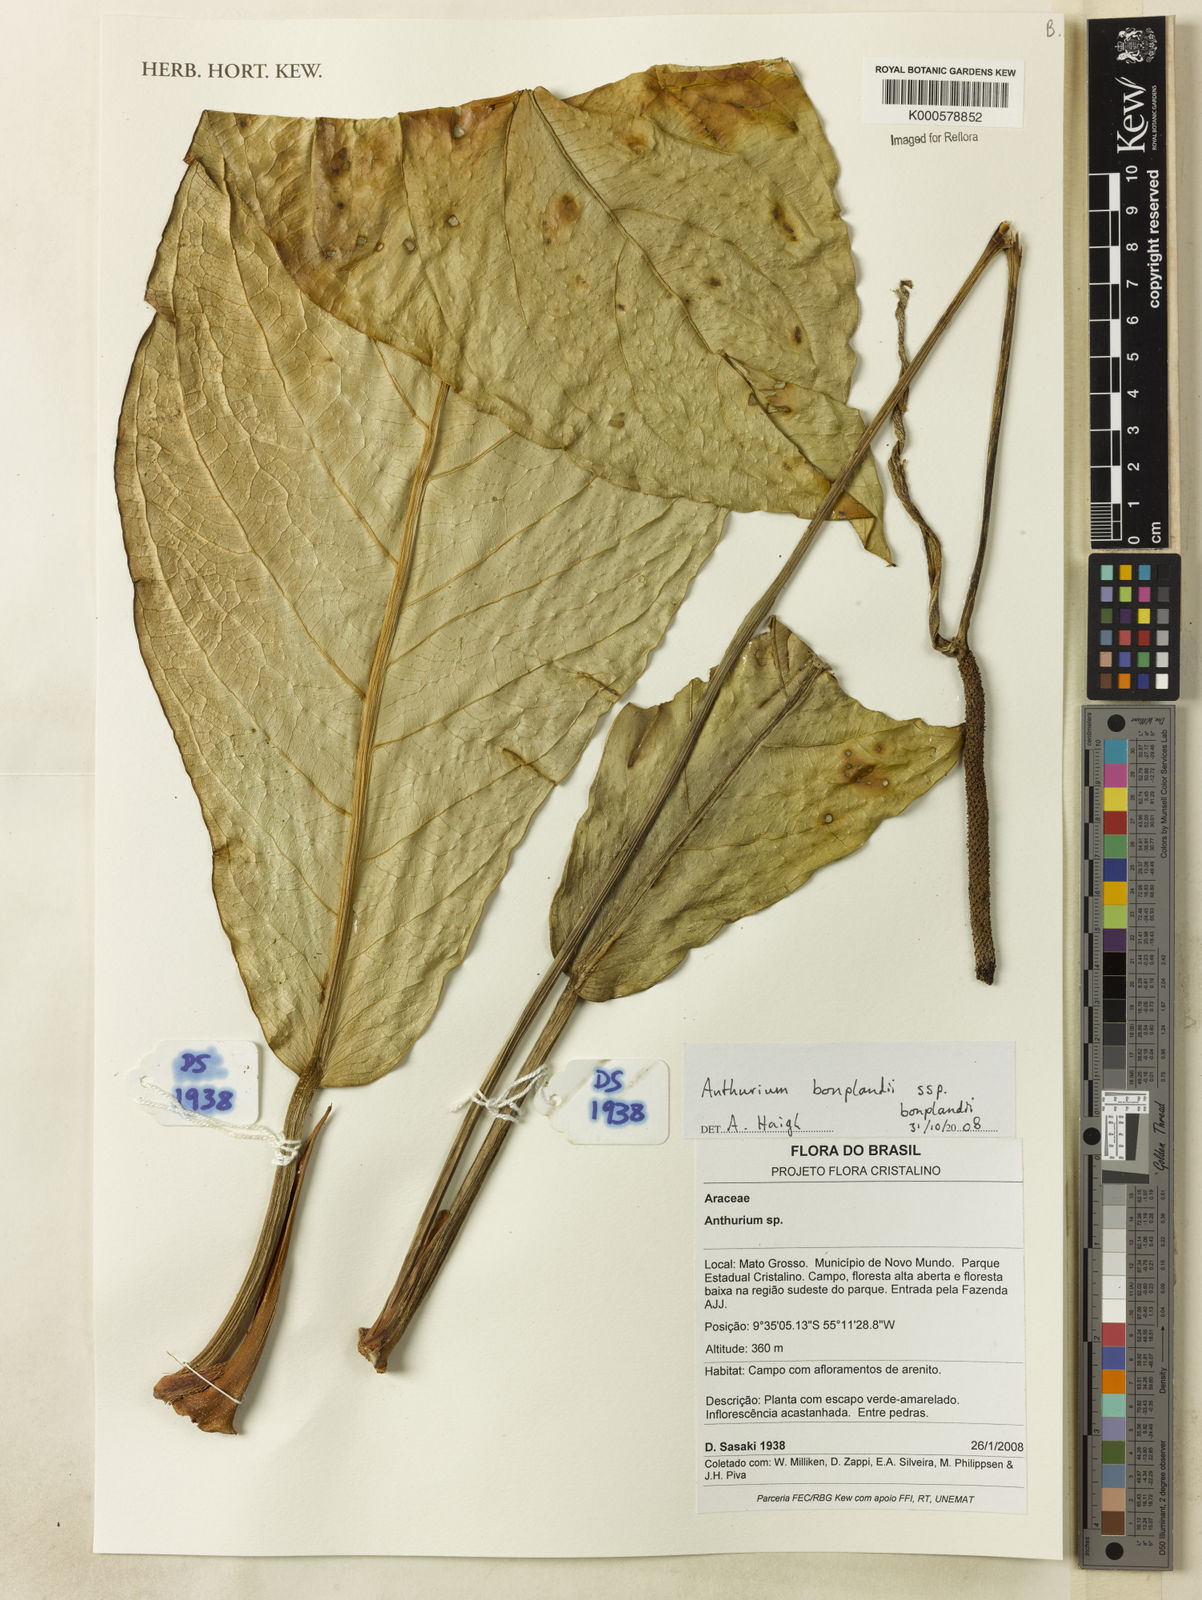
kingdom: Plantae
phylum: Tracheophyta
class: Liliopsida
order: Alismatales
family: Araceae
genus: Anthurium
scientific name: Anthurium bonplandii
